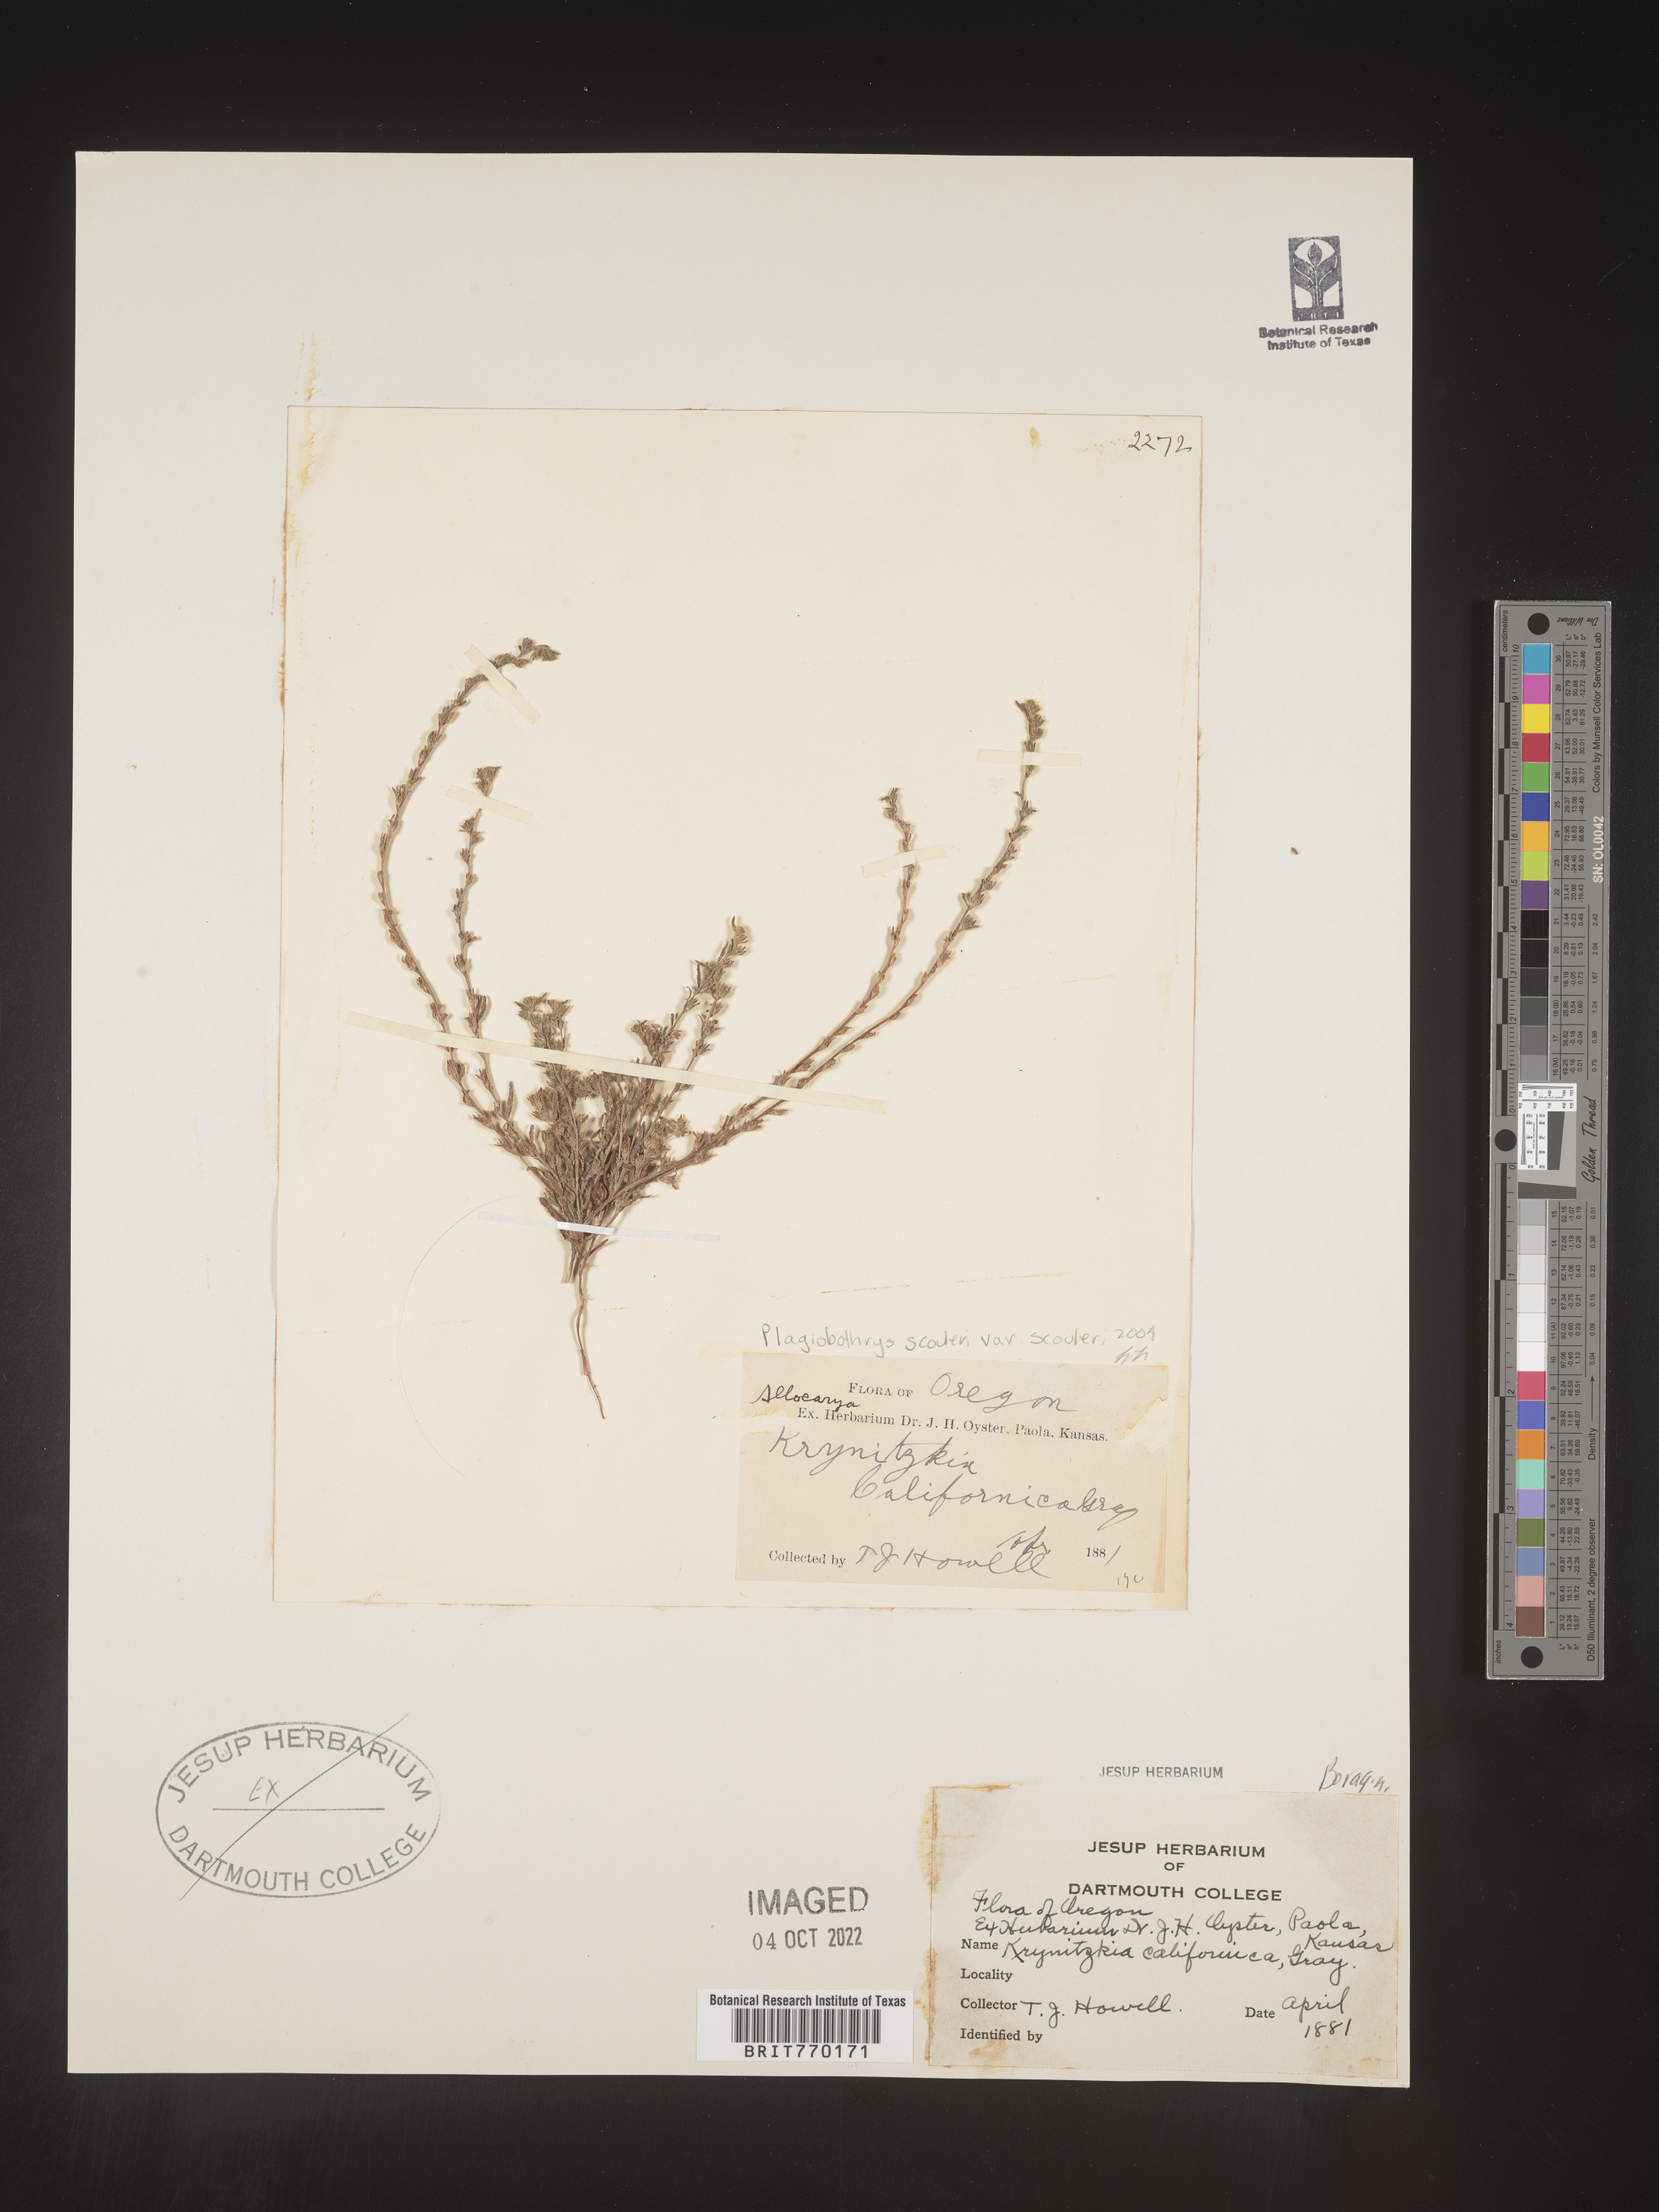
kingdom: Plantae
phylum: Tracheophyta
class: Magnoliopsida
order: Boraginales
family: Boraginaceae
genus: Plagiobothrys
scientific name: Plagiobothrys
